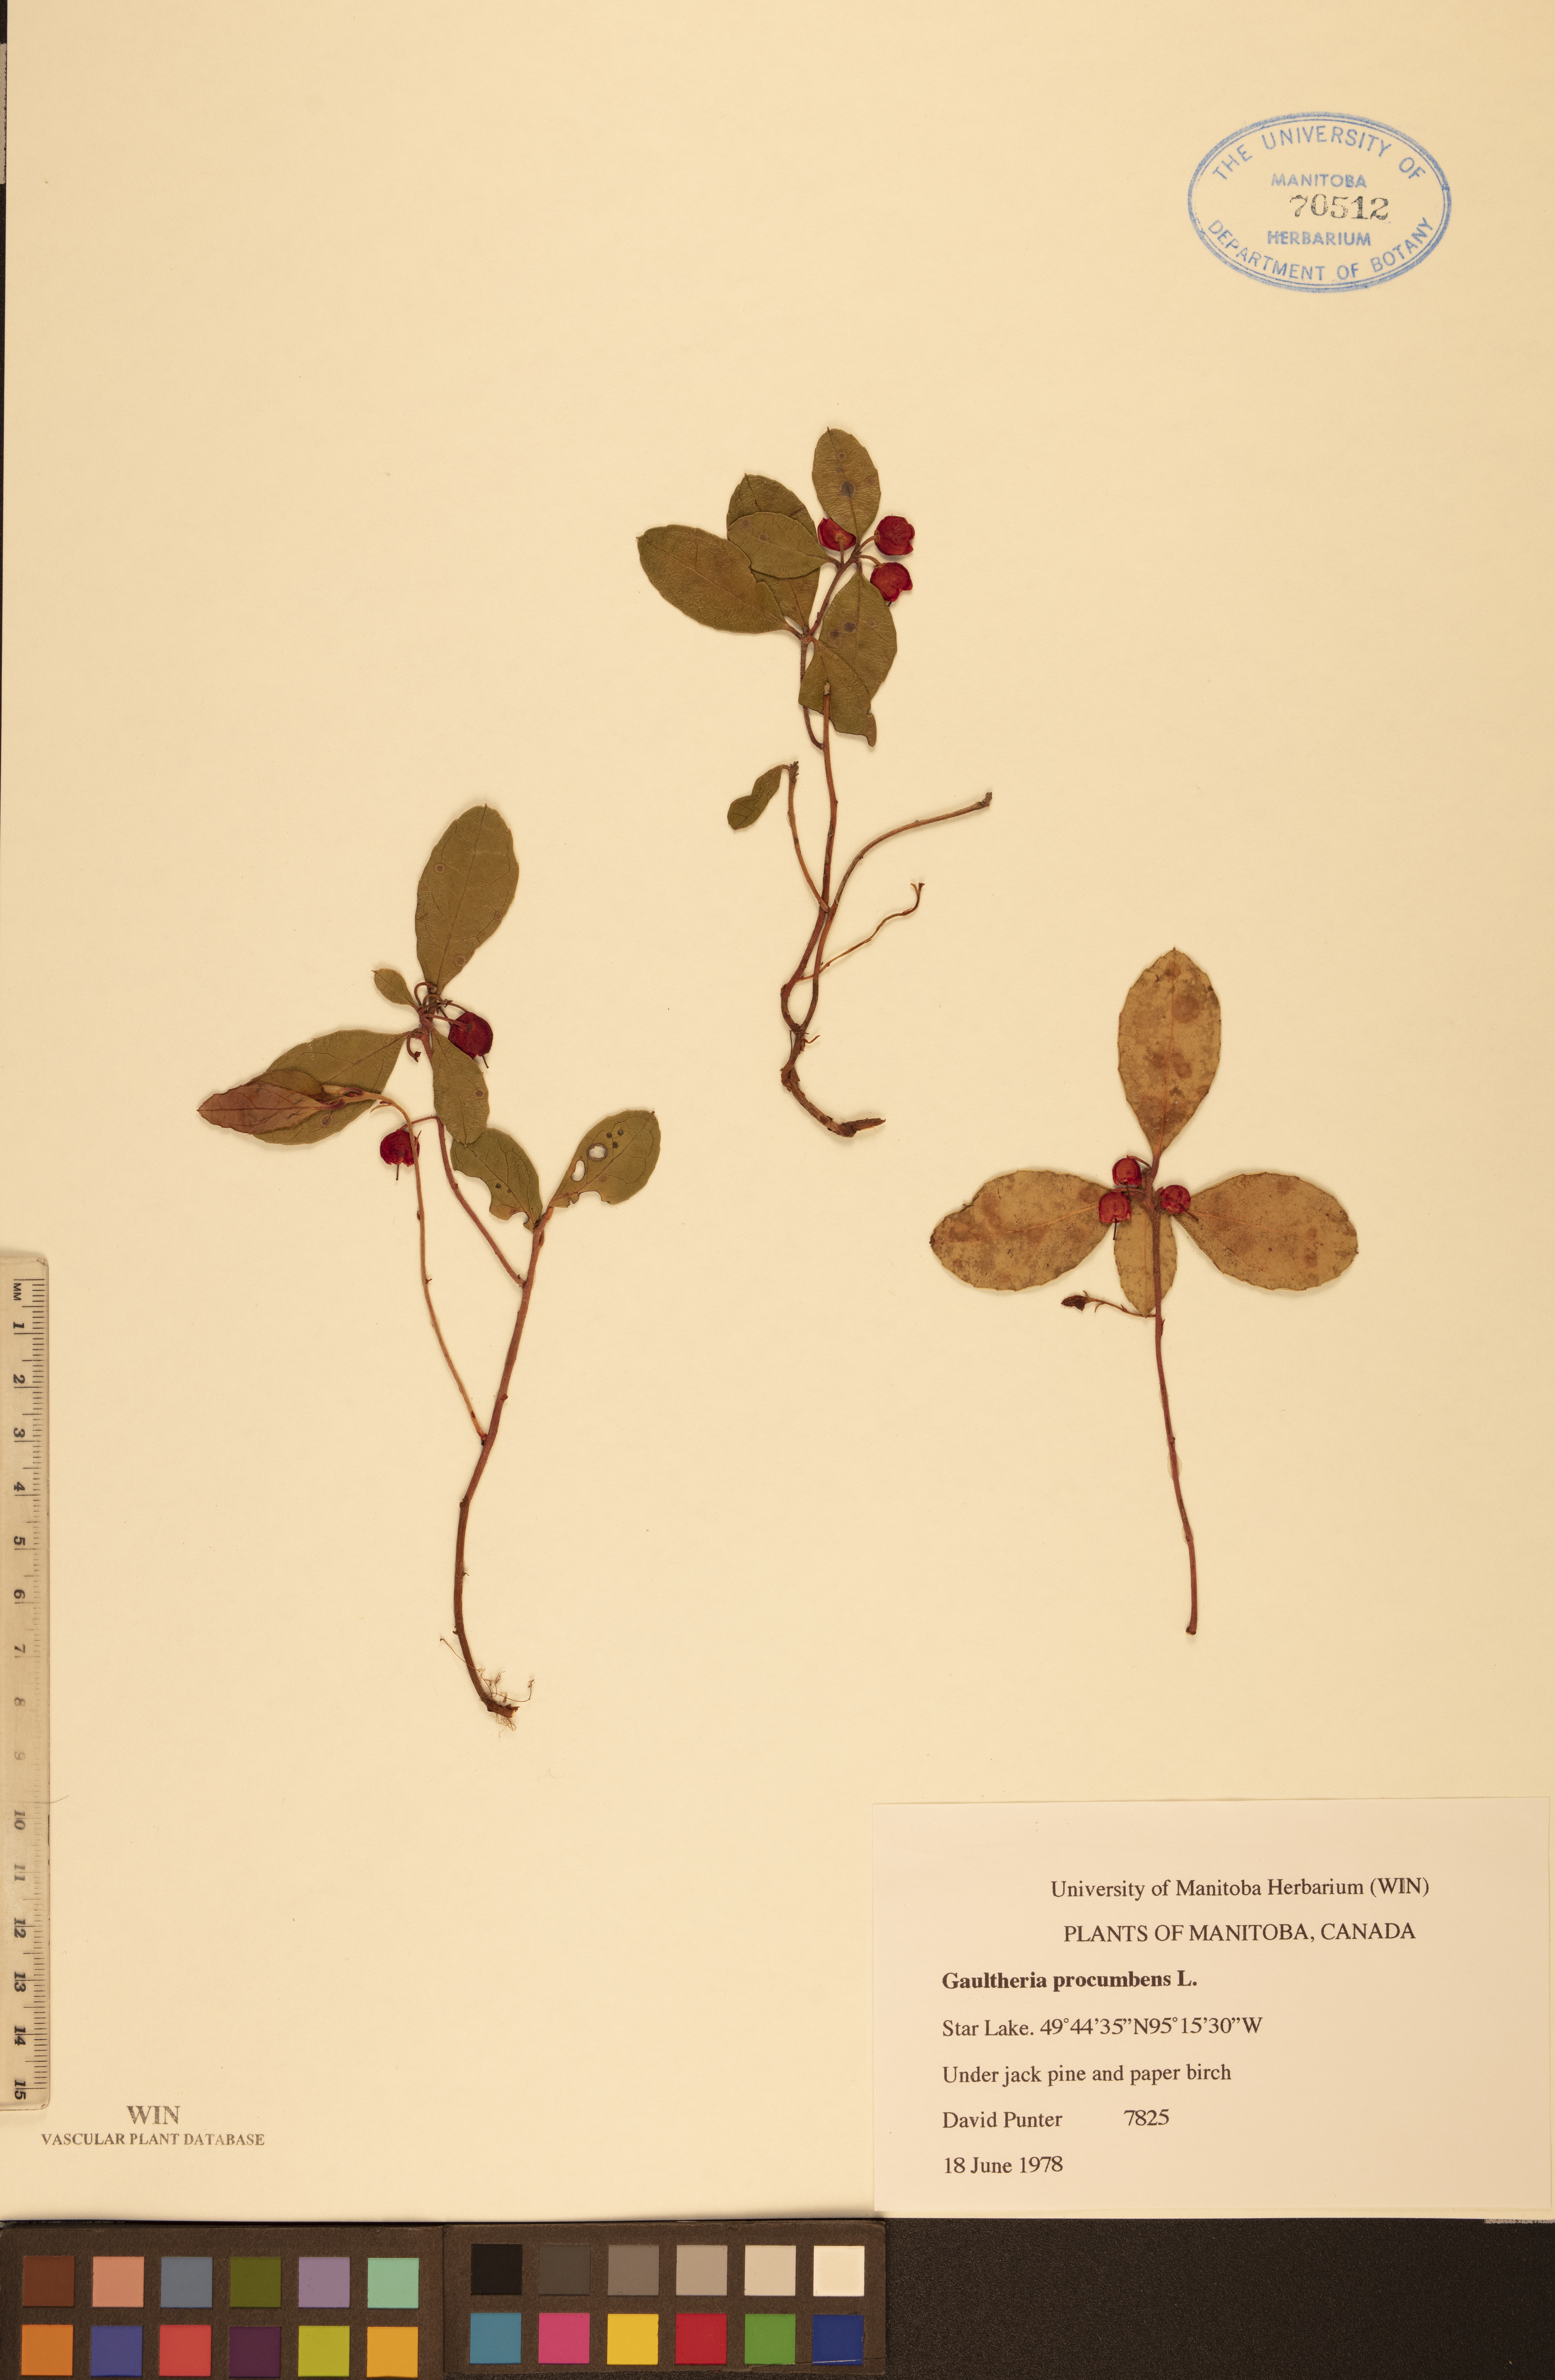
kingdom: Plantae
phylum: Tracheophyta
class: Magnoliopsida
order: Ericales
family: Ericaceae
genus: Gaultheria
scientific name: Gaultheria procumbens
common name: Checkerberry
